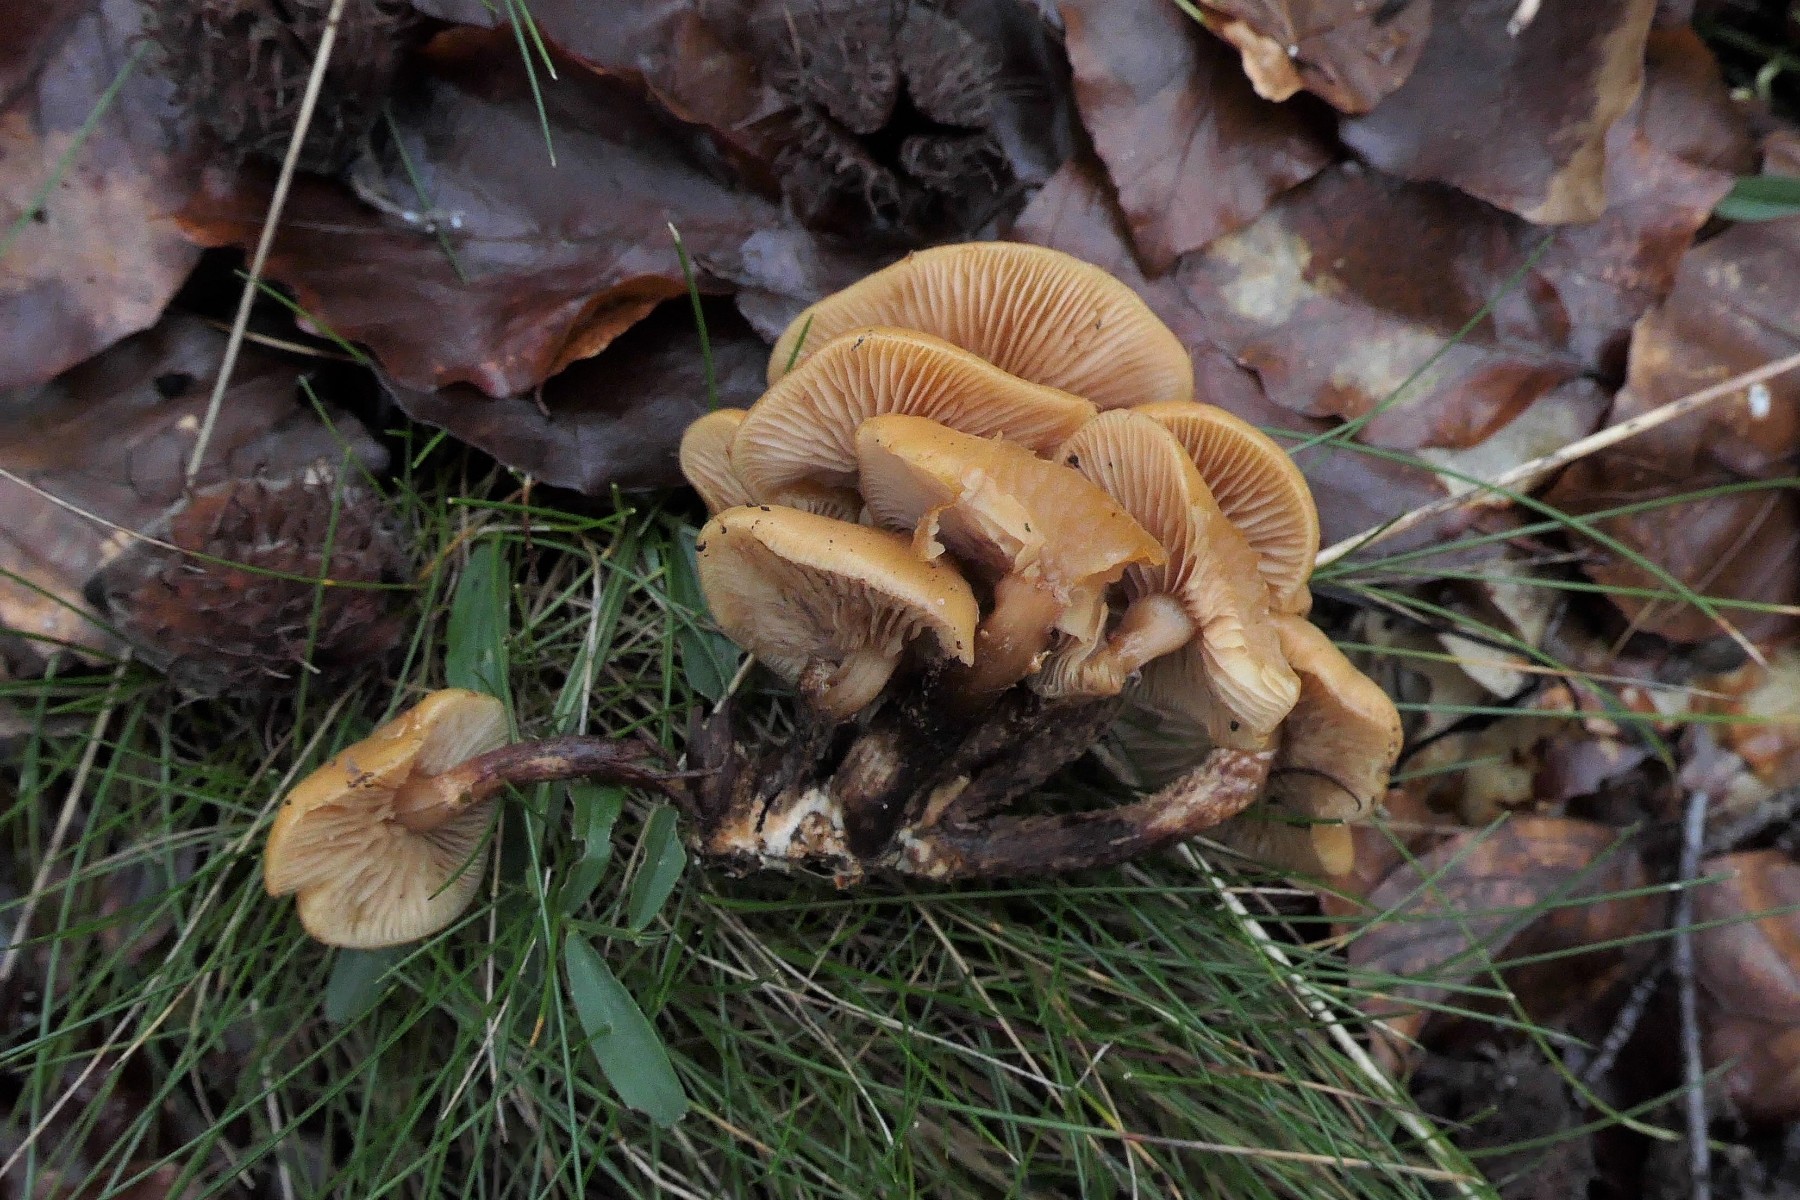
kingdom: Fungi
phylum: Basidiomycota
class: Agaricomycetes
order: Agaricales
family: Strophariaceae
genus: Kuehneromyces
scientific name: Kuehneromyces mutabilis
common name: foranderlig skælhat
